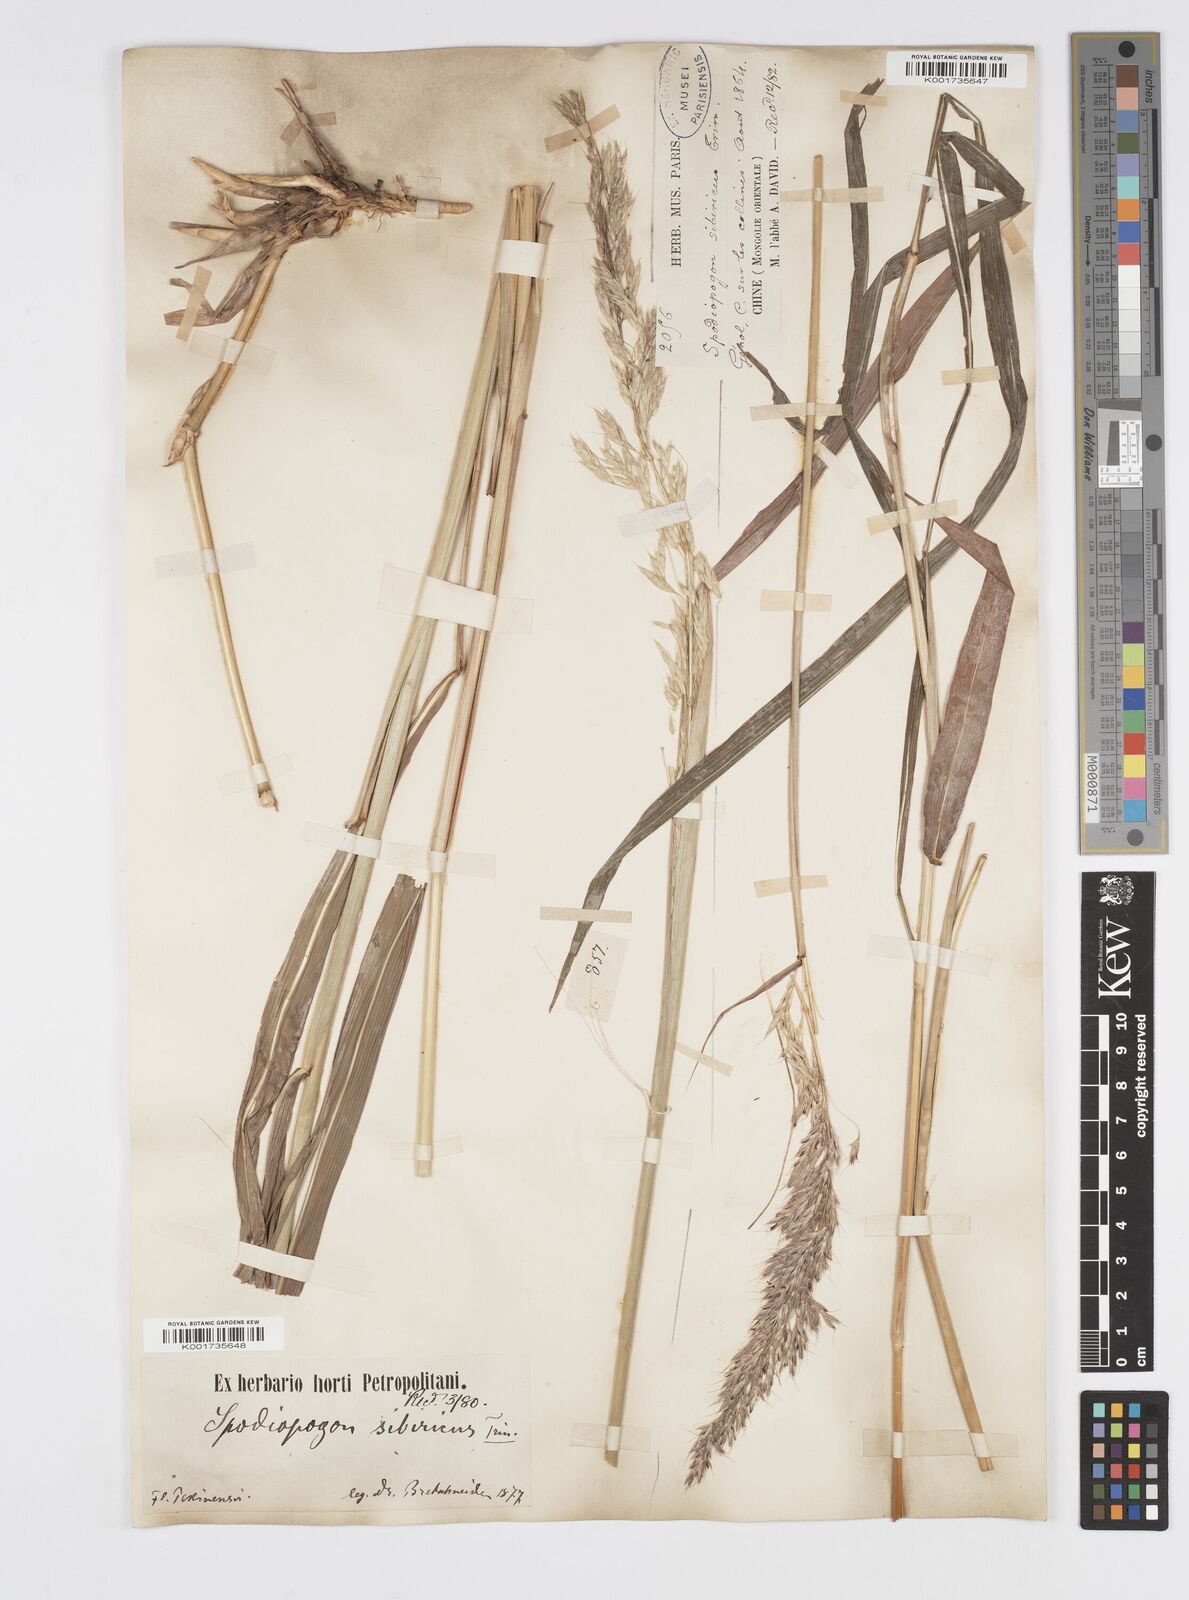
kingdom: Plantae
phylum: Tracheophyta
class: Liliopsida
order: Poales
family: Poaceae
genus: Spodiopogon
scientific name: Spodiopogon sibiricus
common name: Siberian graybeard
